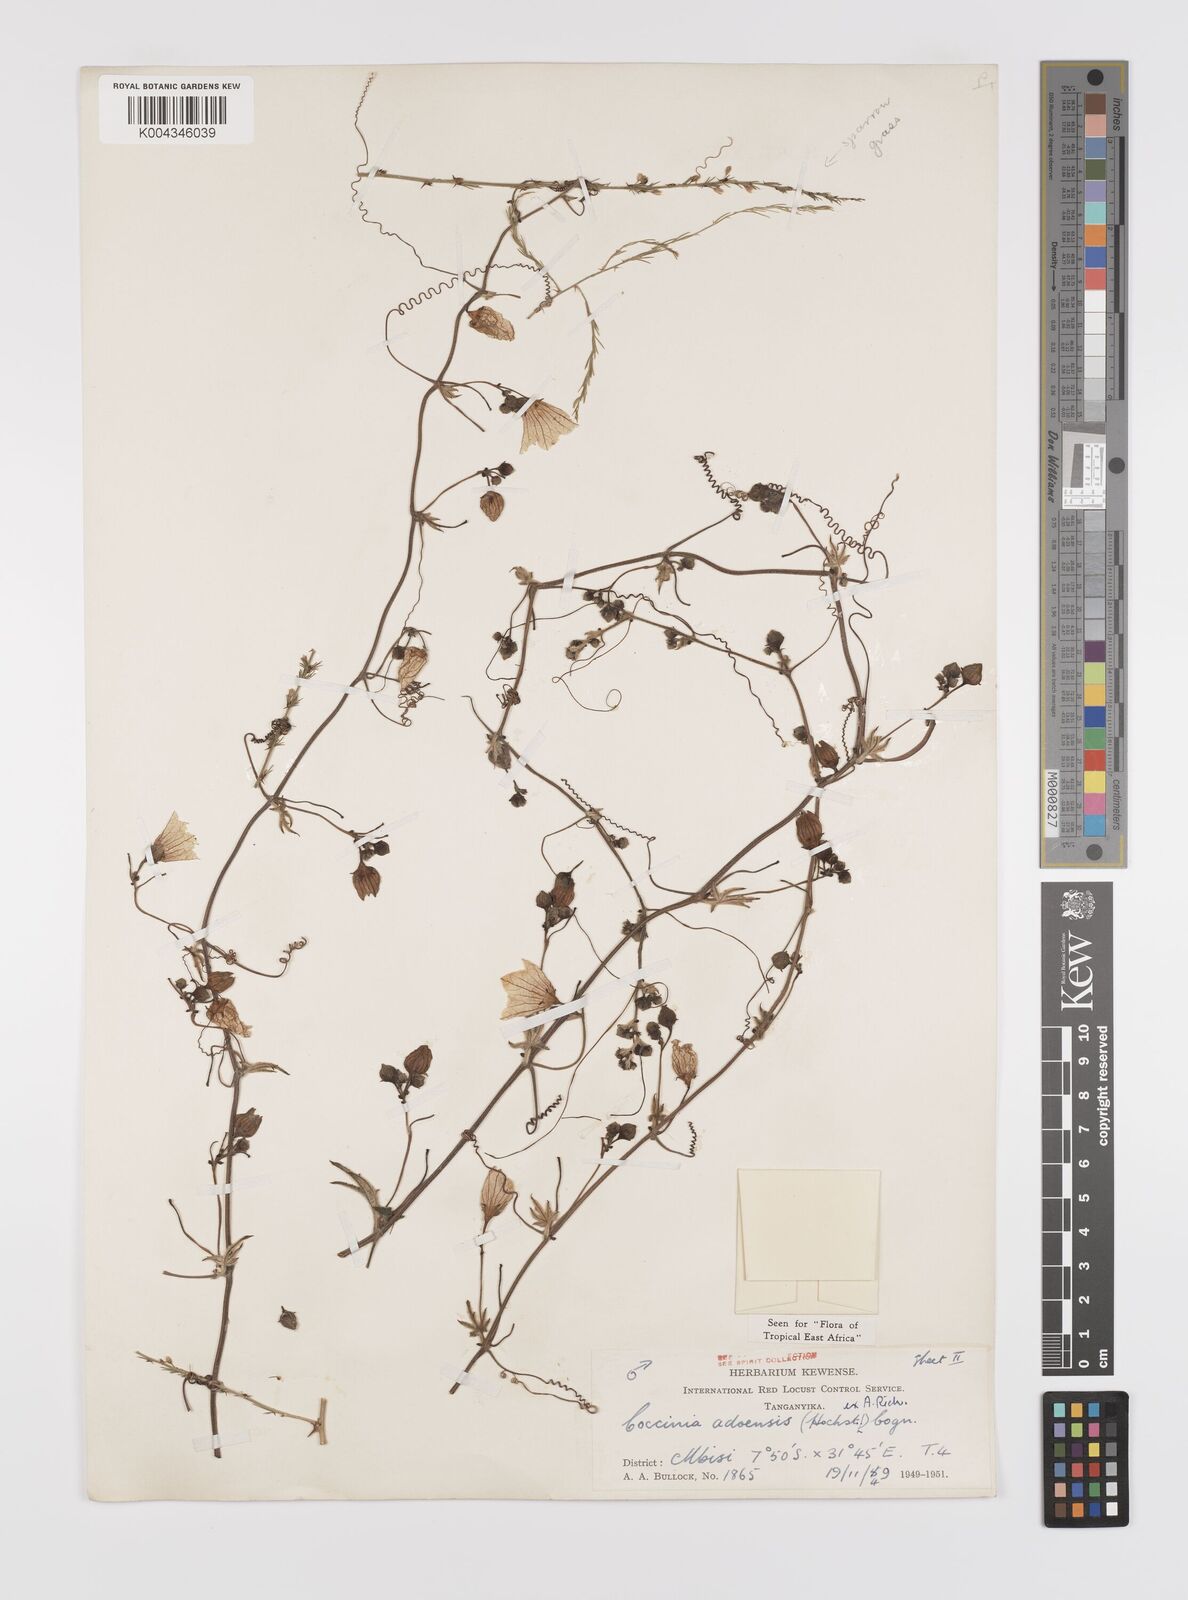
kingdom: Plantae
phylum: Tracheophyta
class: Magnoliopsida
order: Cucurbitales
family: Cucurbitaceae
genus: Coccinia
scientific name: Coccinia adoensis
